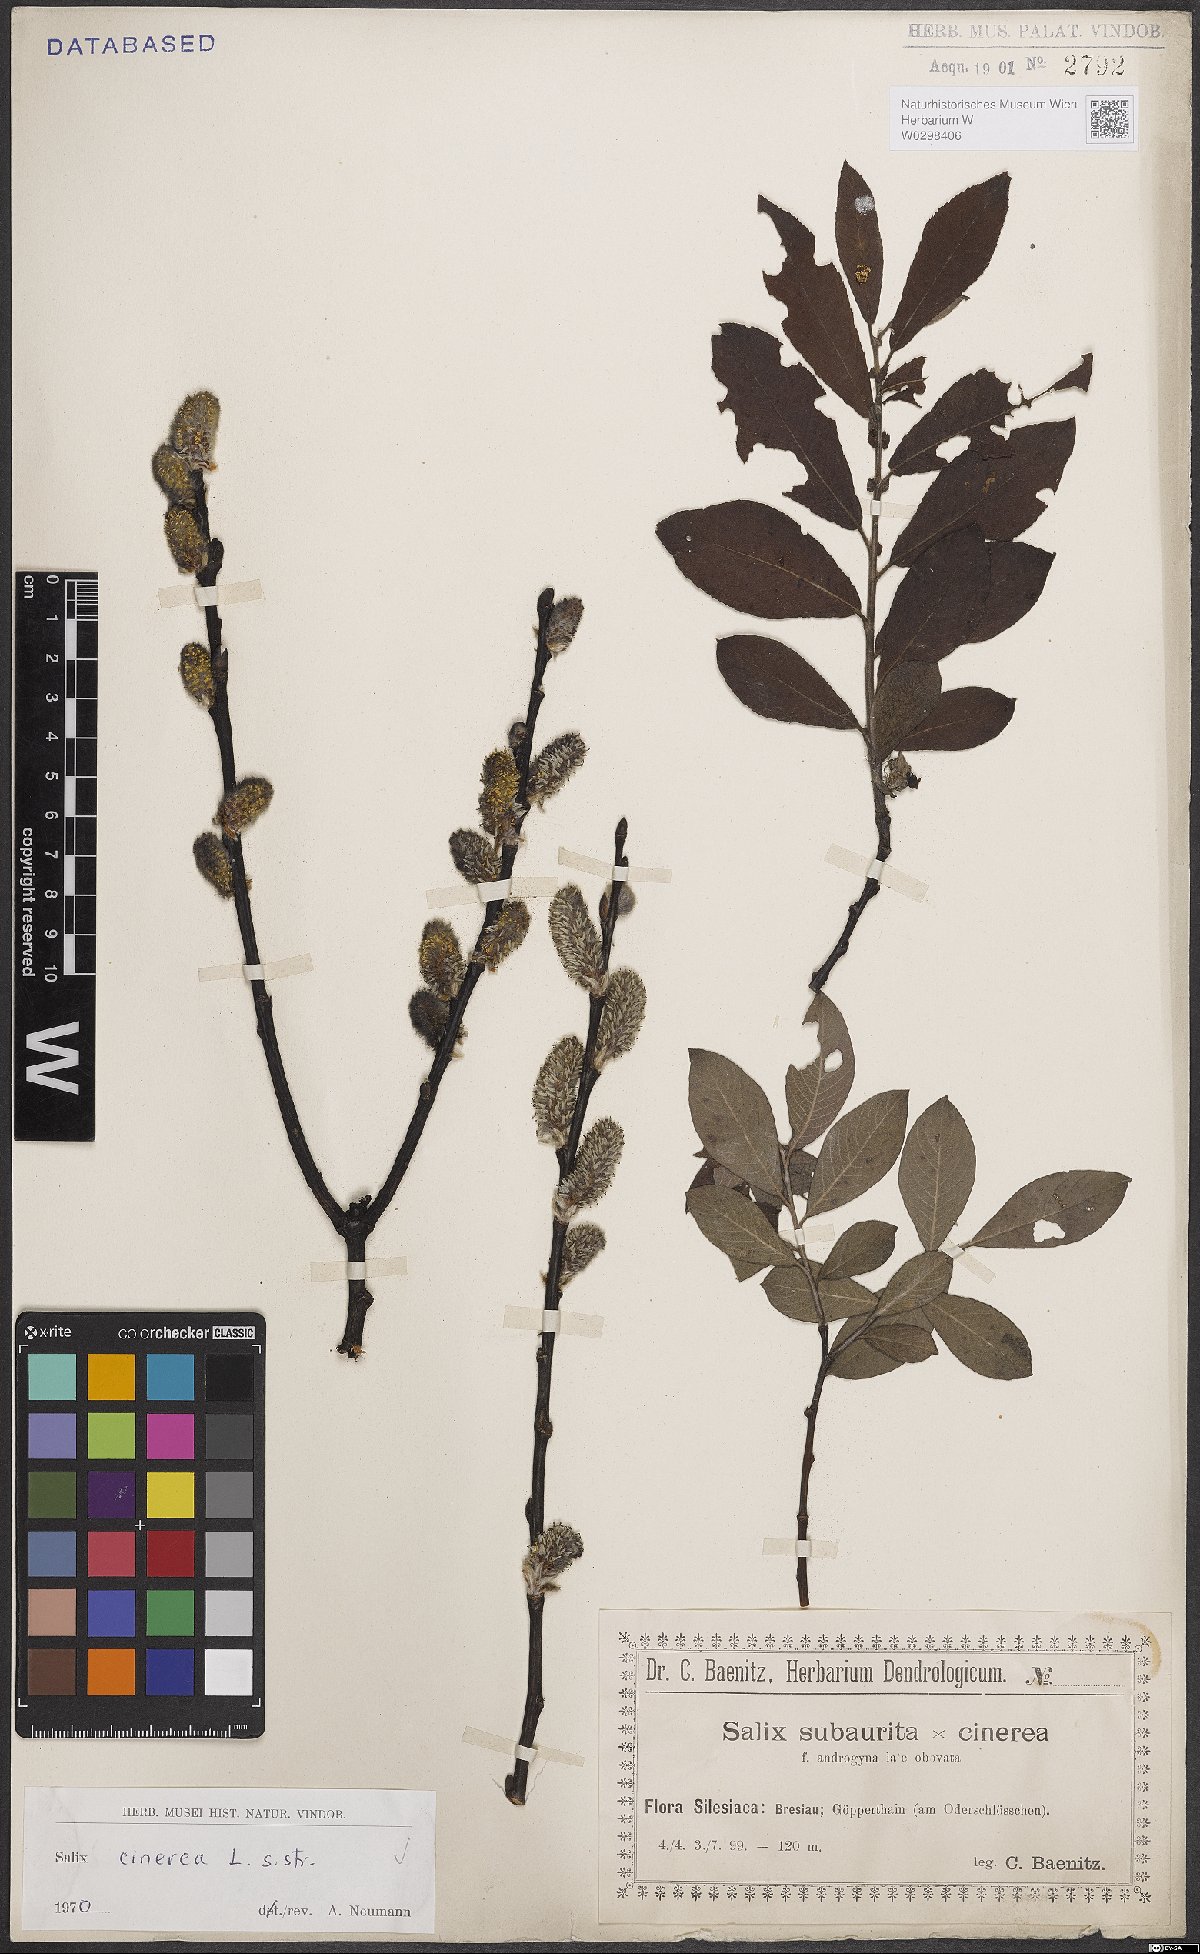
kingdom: Plantae
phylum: Tracheophyta
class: Magnoliopsida
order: Malpighiales
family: Salicaceae
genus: Salix
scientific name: Salix cinerea
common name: Common sallow
